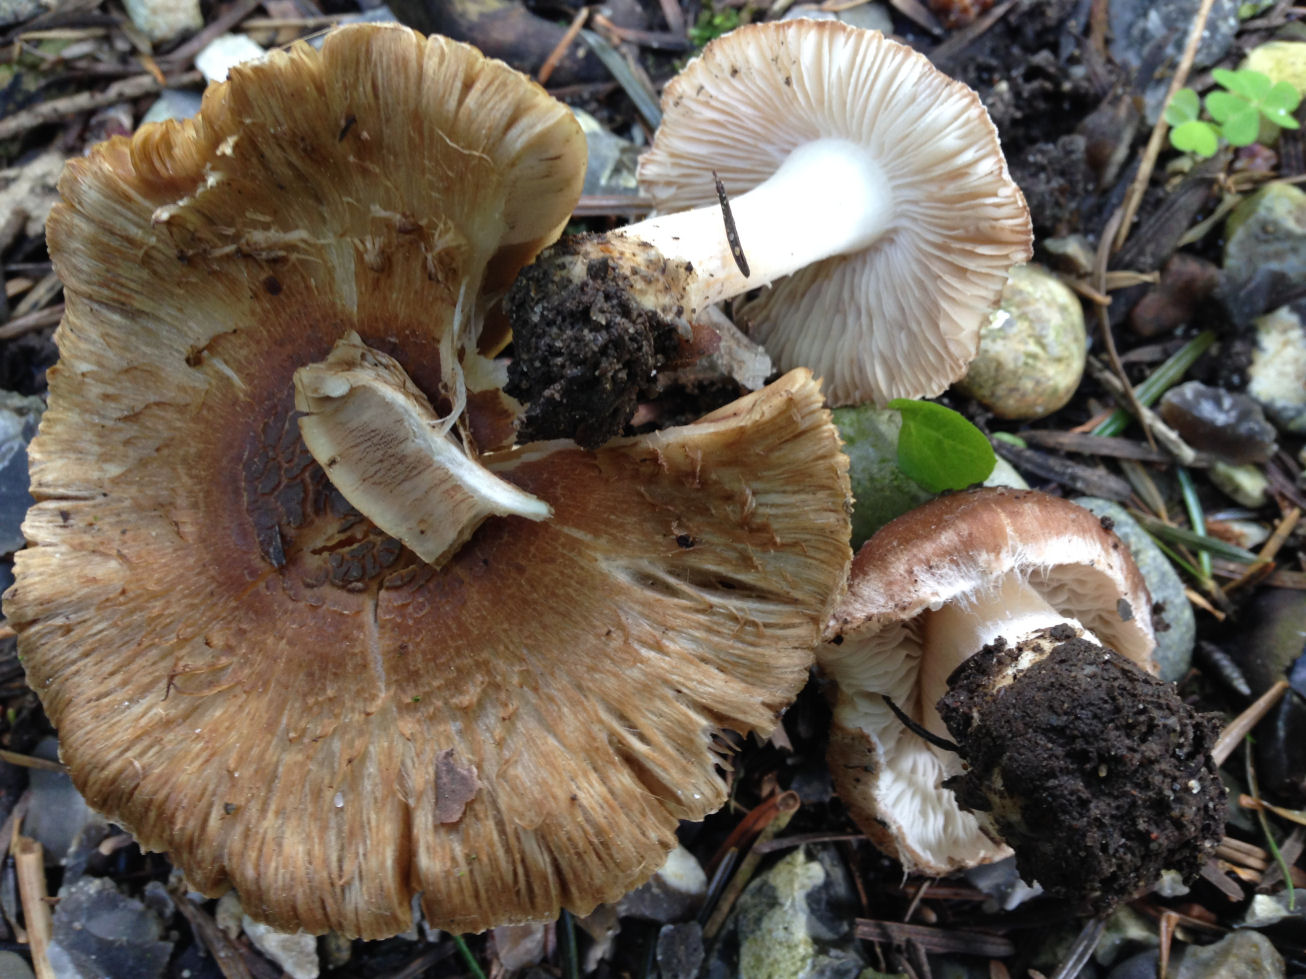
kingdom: Fungi
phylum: Basidiomycota
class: Agaricomycetes
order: Agaricales
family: Inocybaceae
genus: Inocybe
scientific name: Inocybe
